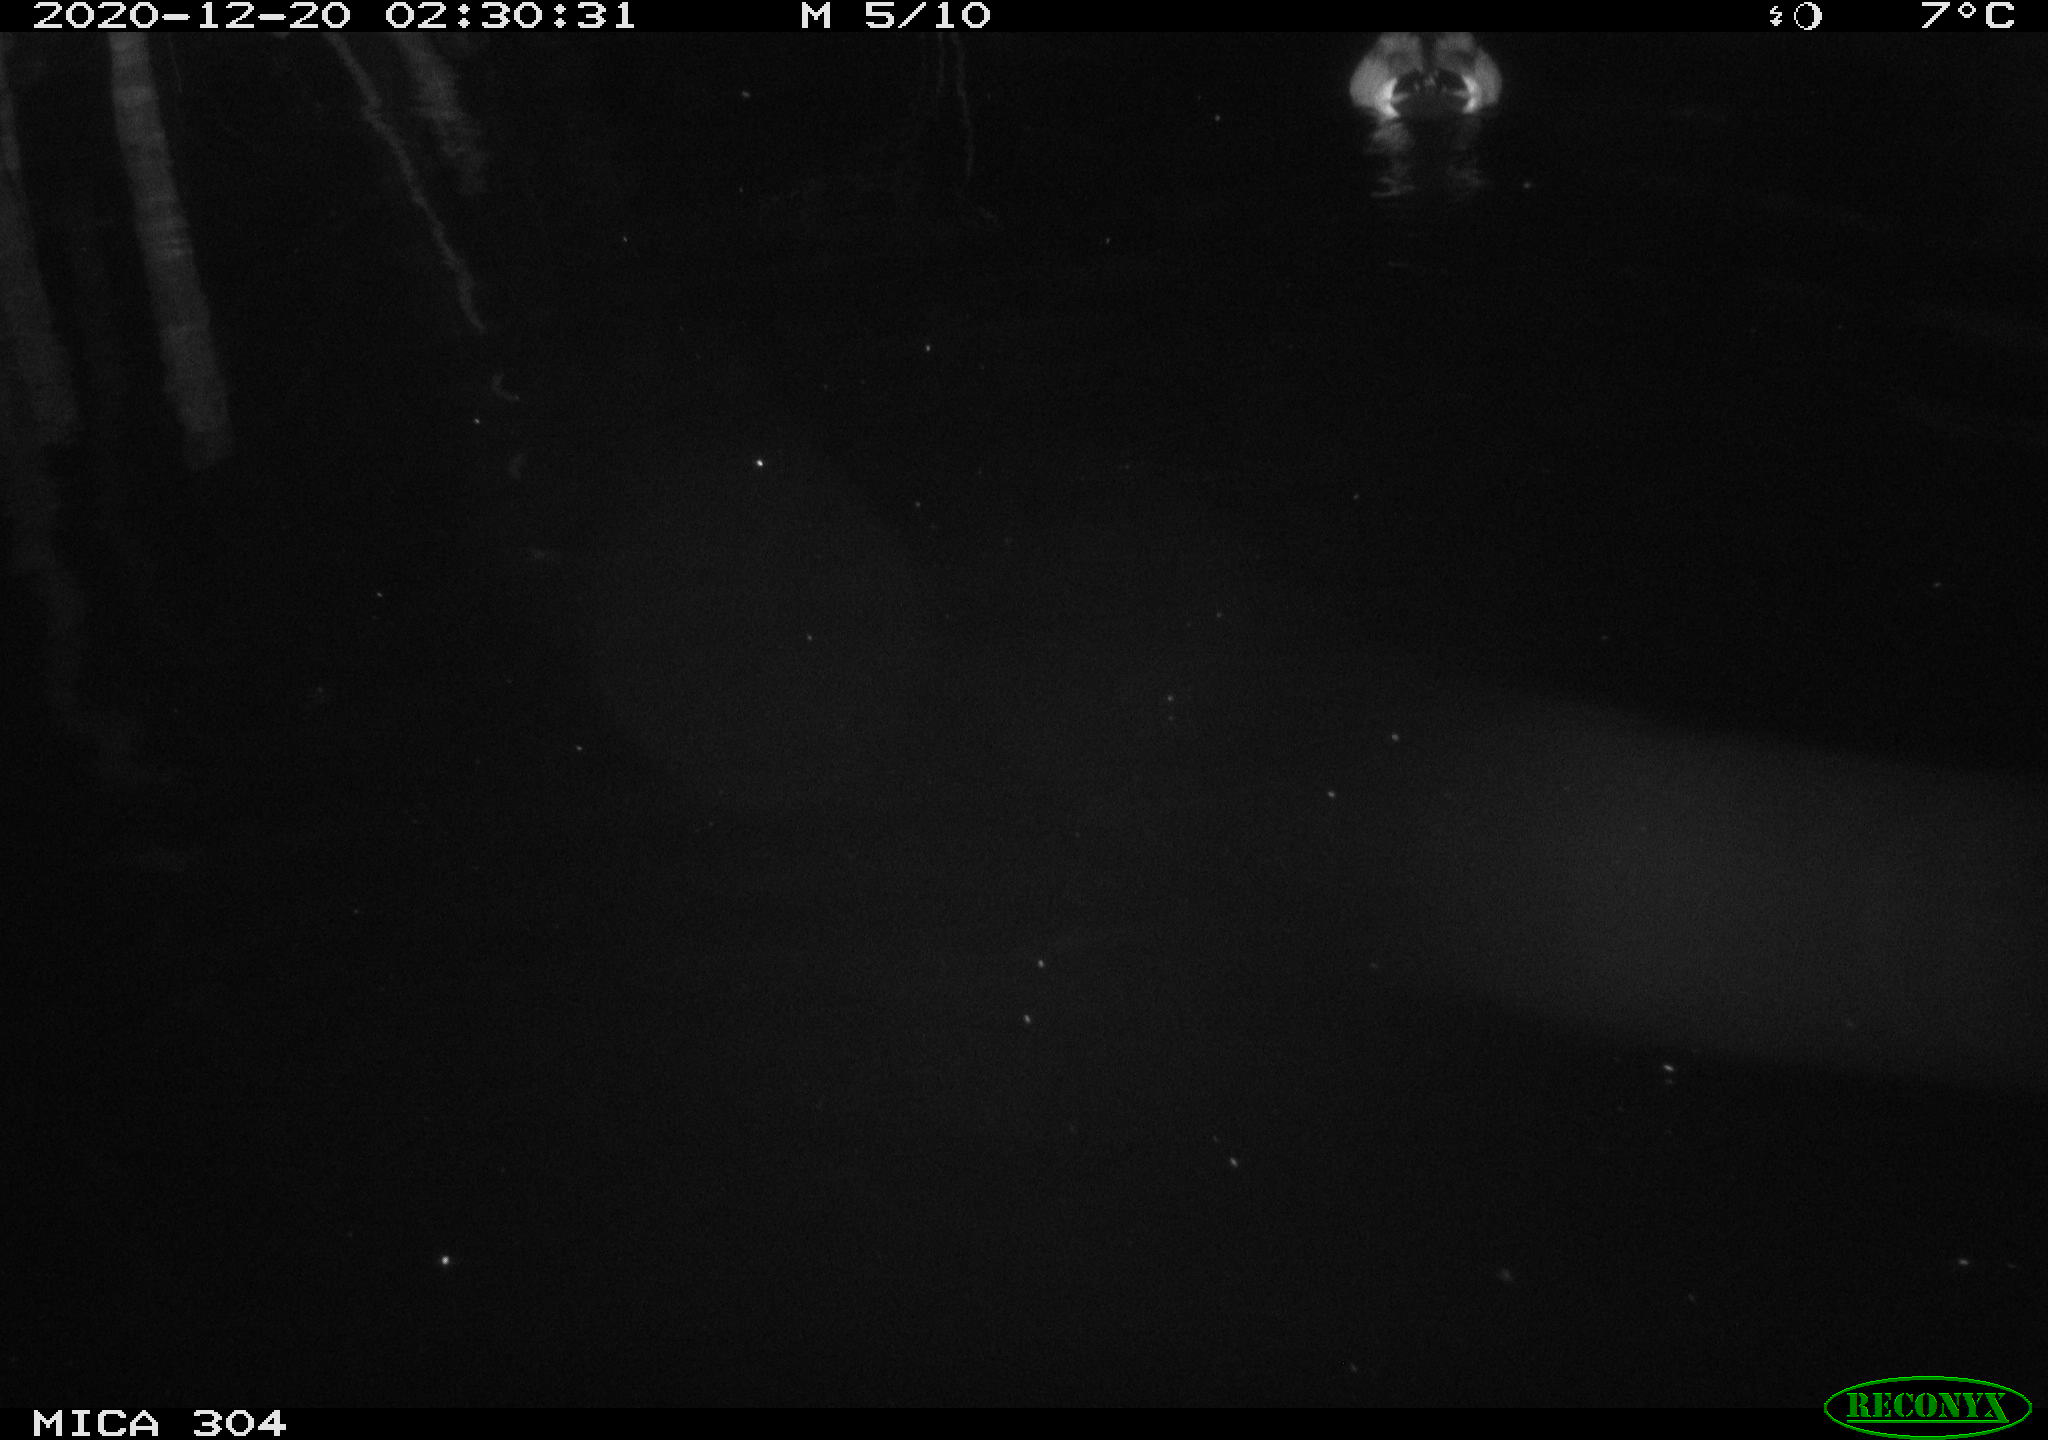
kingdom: Animalia
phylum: Chordata
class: Aves
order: Anseriformes
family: Anatidae
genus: Anas
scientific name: Anas platyrhynchos
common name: Mallard
